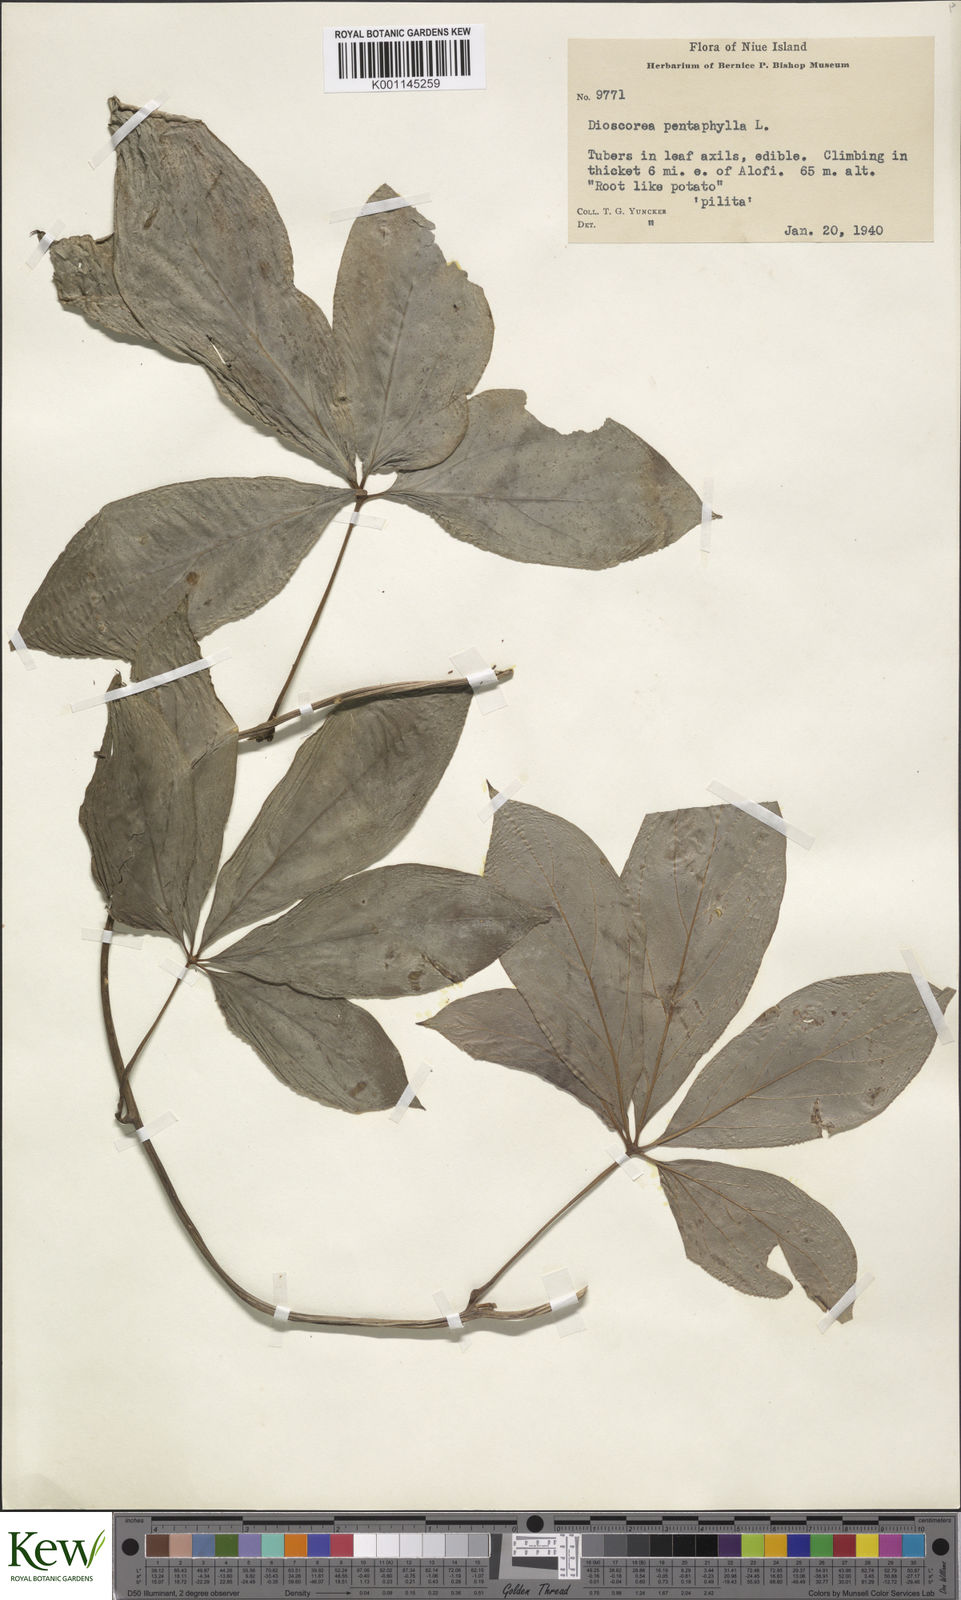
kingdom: Plantae
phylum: Tracheophyta
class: Liliopsida
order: Dioscoreales
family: Dioscoreaceae
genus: Dioscorea
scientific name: Dioscorea pentaphylla
